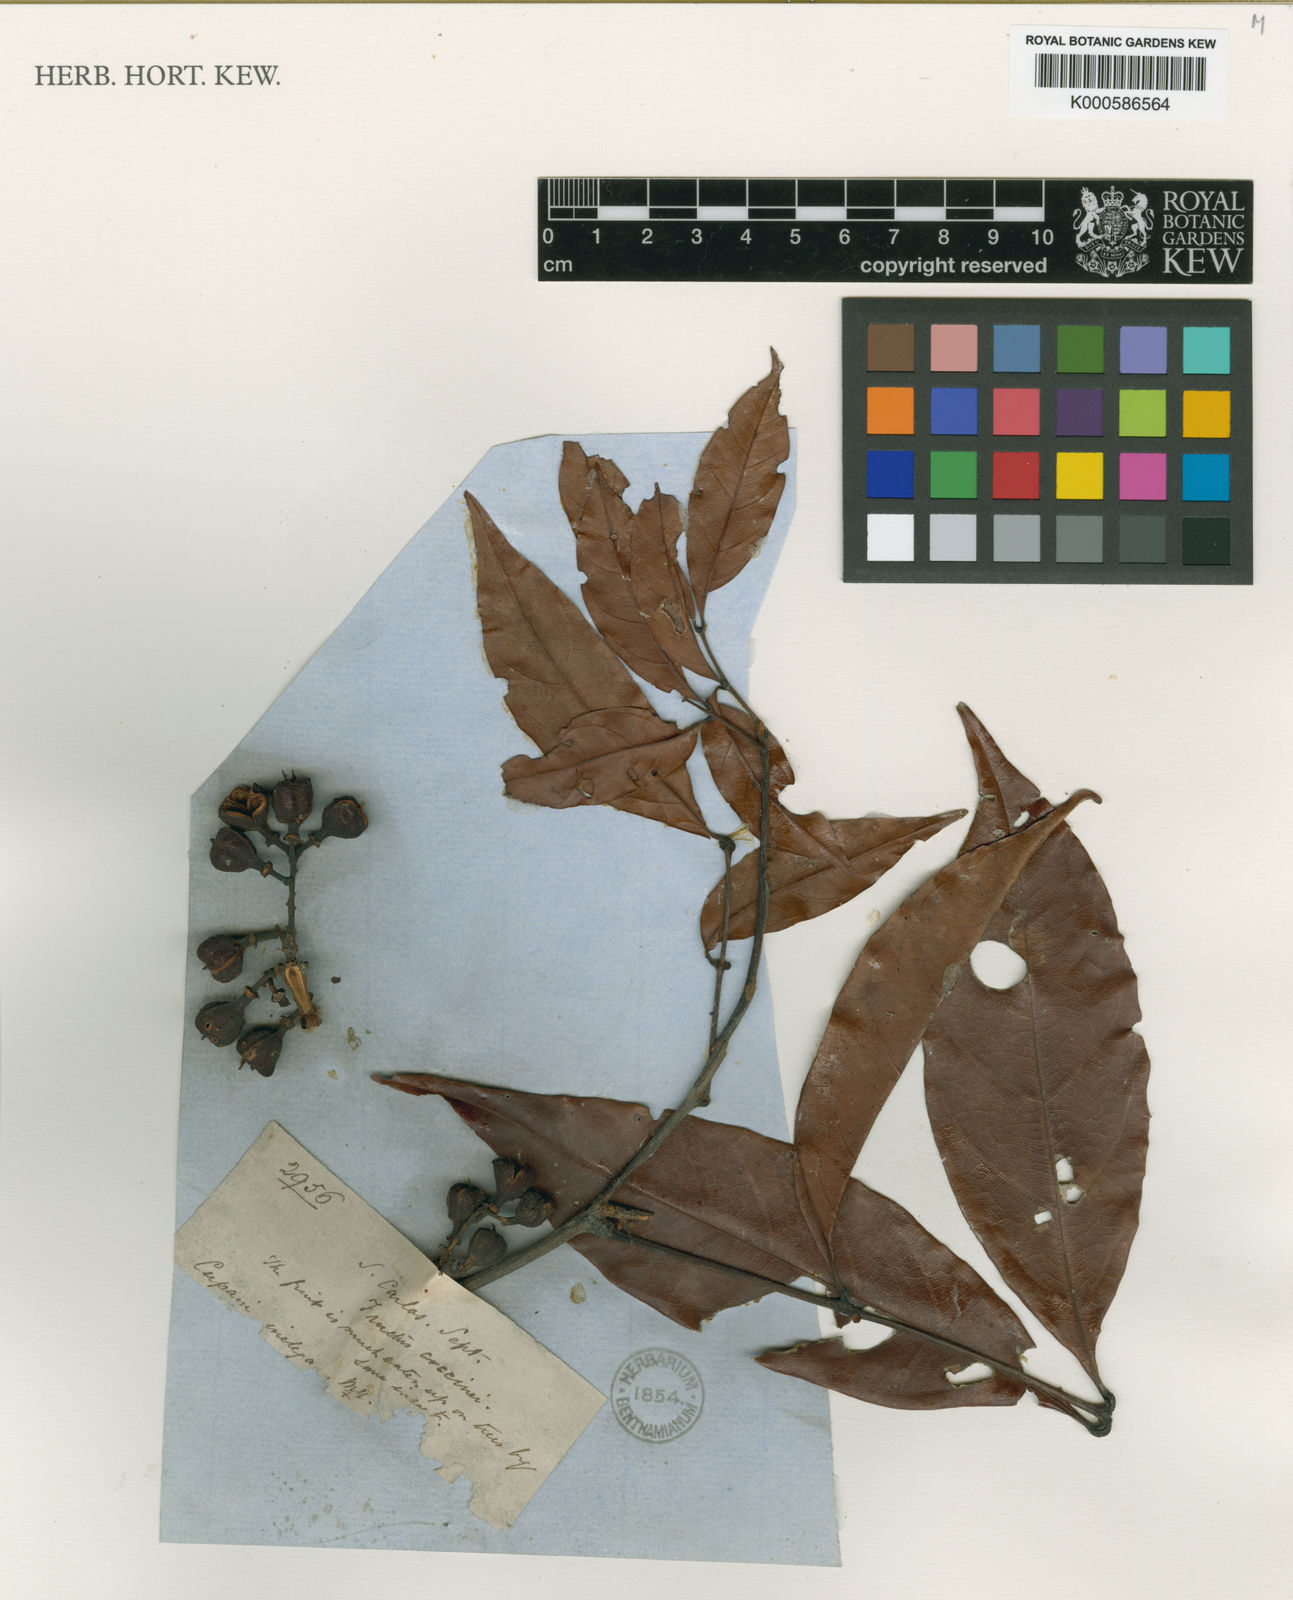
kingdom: Plantae
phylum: Tracheophyta
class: Magnoliopsida
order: Sapindales
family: Sapindaceae
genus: Matayba
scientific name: Matayba inelegans
